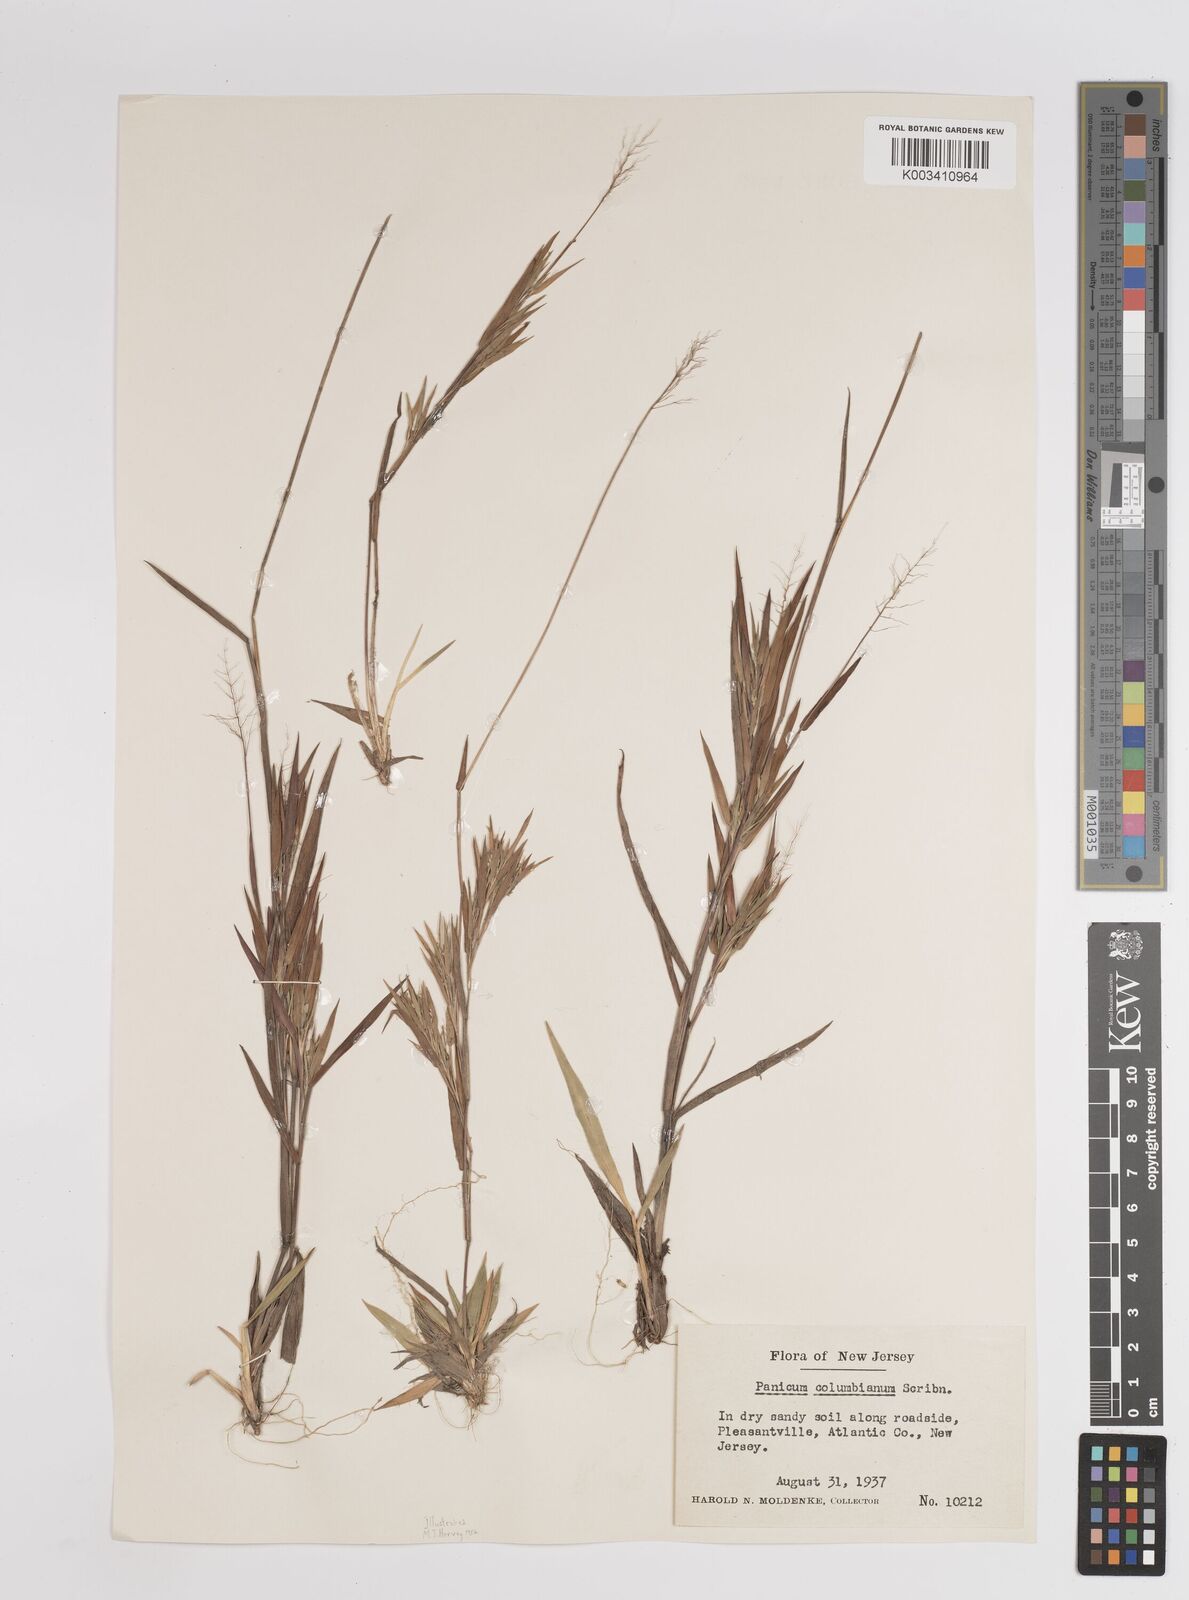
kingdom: Plantae
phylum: Tracheophyta
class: Liliopsida
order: Poales
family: Poaceae
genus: Dichanthelium
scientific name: Dichanthelium columbianum
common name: Hemlock panic grass
